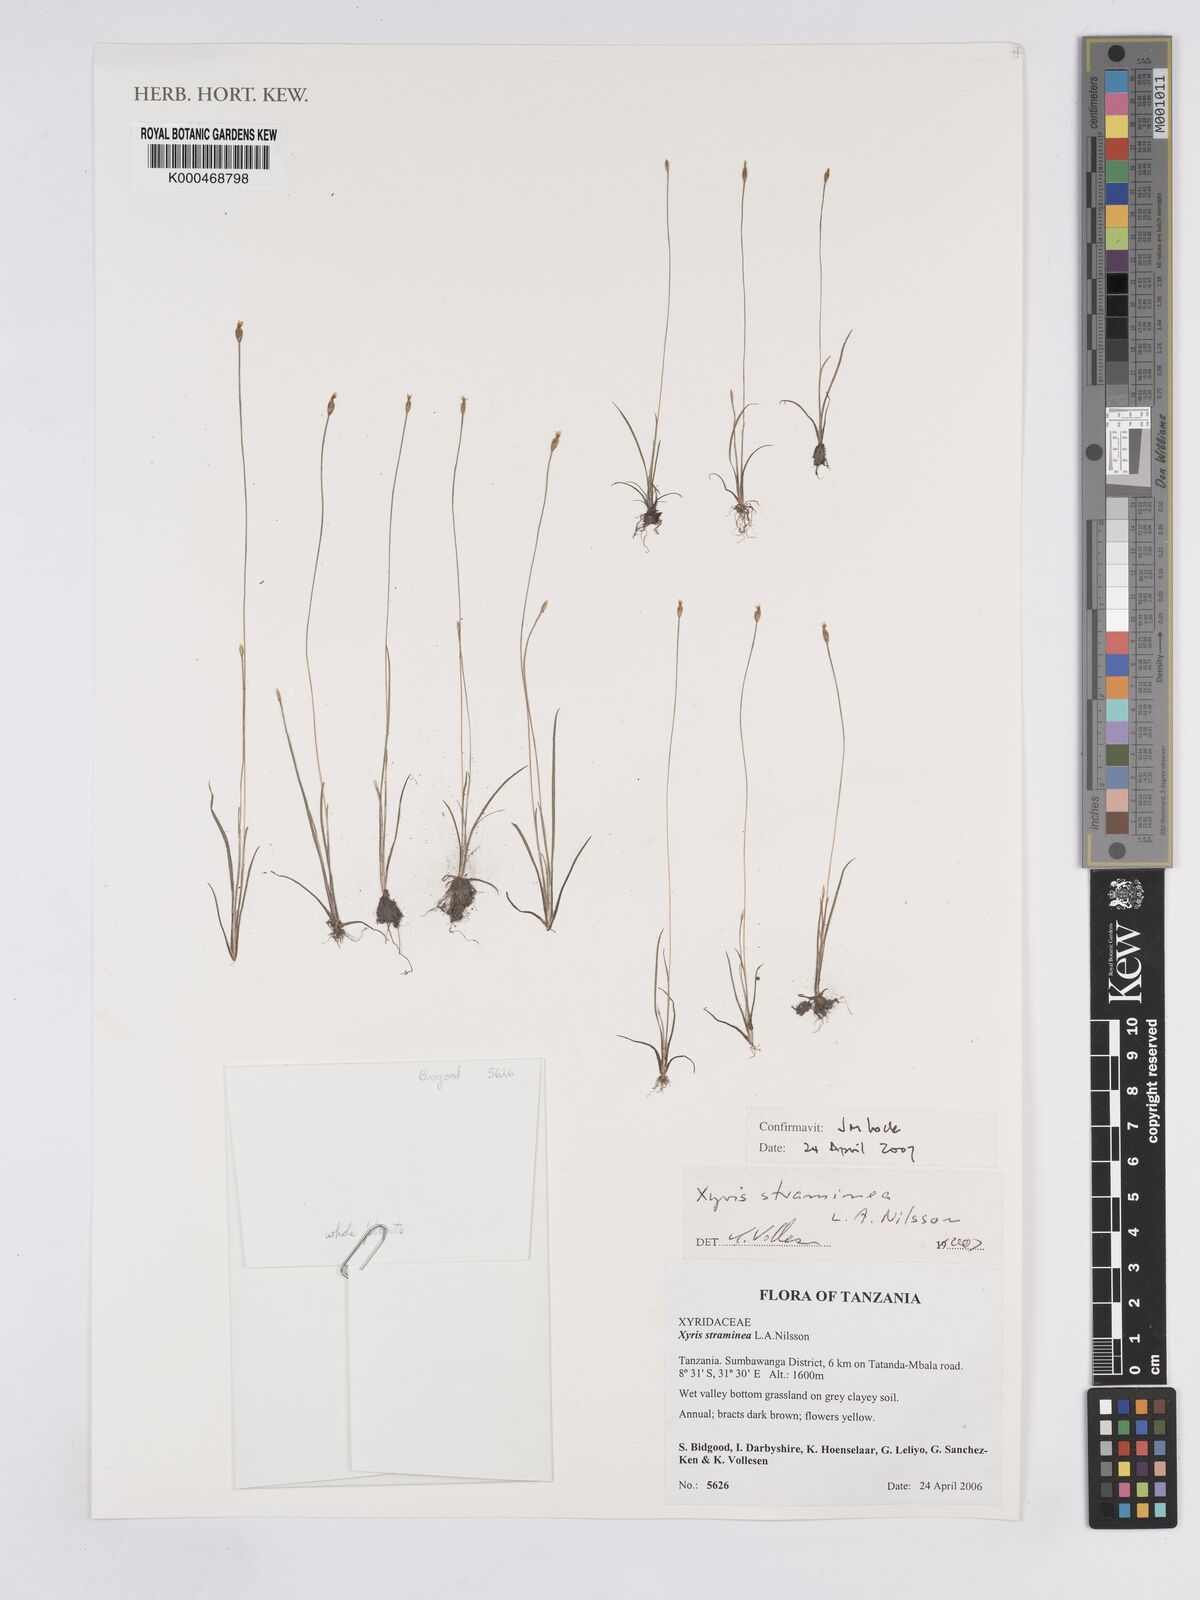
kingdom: Plantae
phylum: Tracheophyta
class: Liliopsida
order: Poales
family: Xyridaceae
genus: Xyris
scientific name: Xyris straminea
